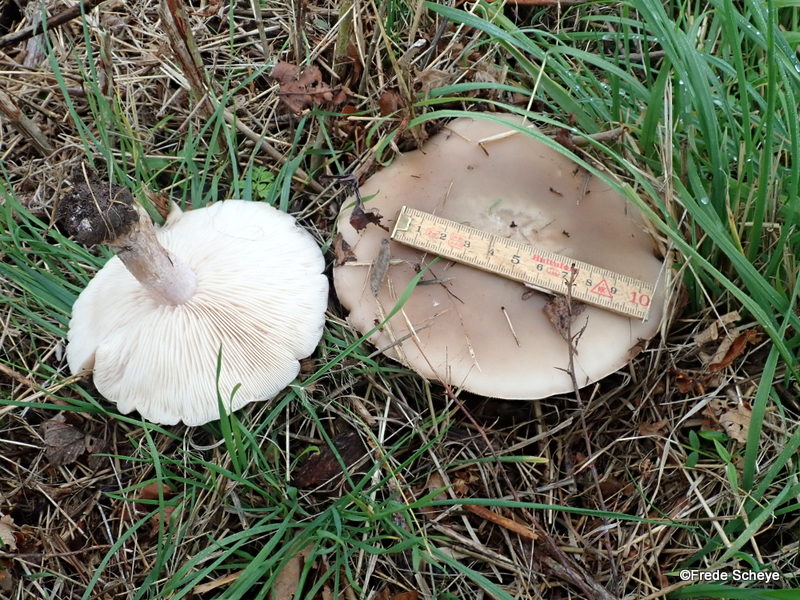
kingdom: Fungi
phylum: Basidiomycota
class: Agaricomycetes
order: Agaricales
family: Tricholomataceae
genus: Lepista
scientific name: Lepista personata
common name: bleg hekseringshat
